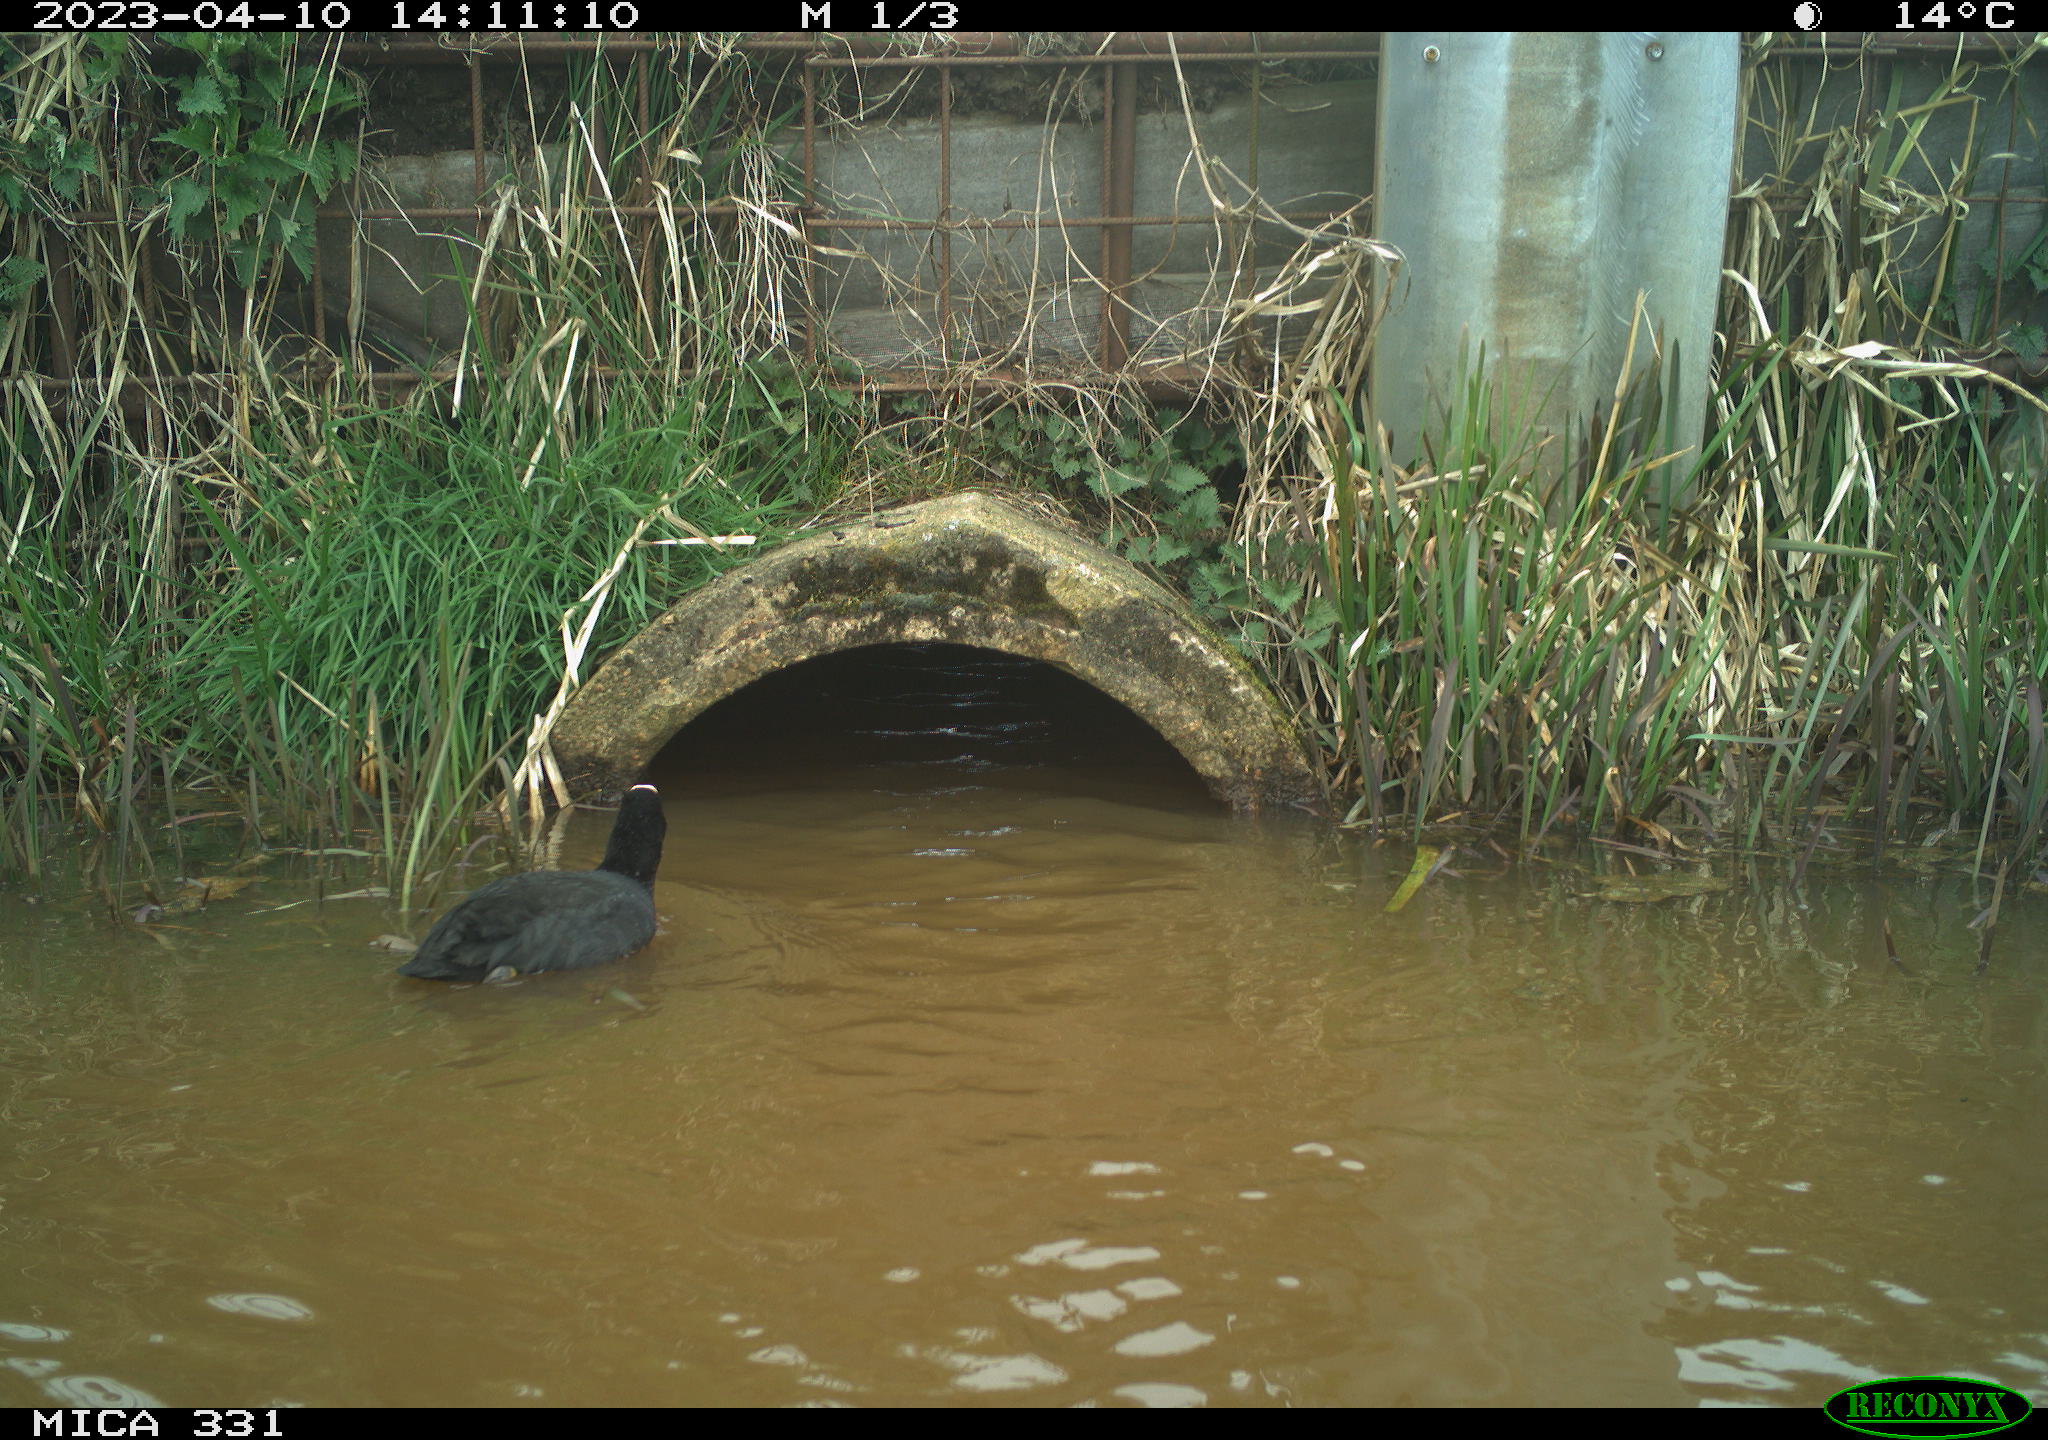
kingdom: Animalia
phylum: Chordata
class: Aves
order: Gruiformes
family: Rallidae
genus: Gallinula
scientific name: Gallinula chloropus
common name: Common moorhen
